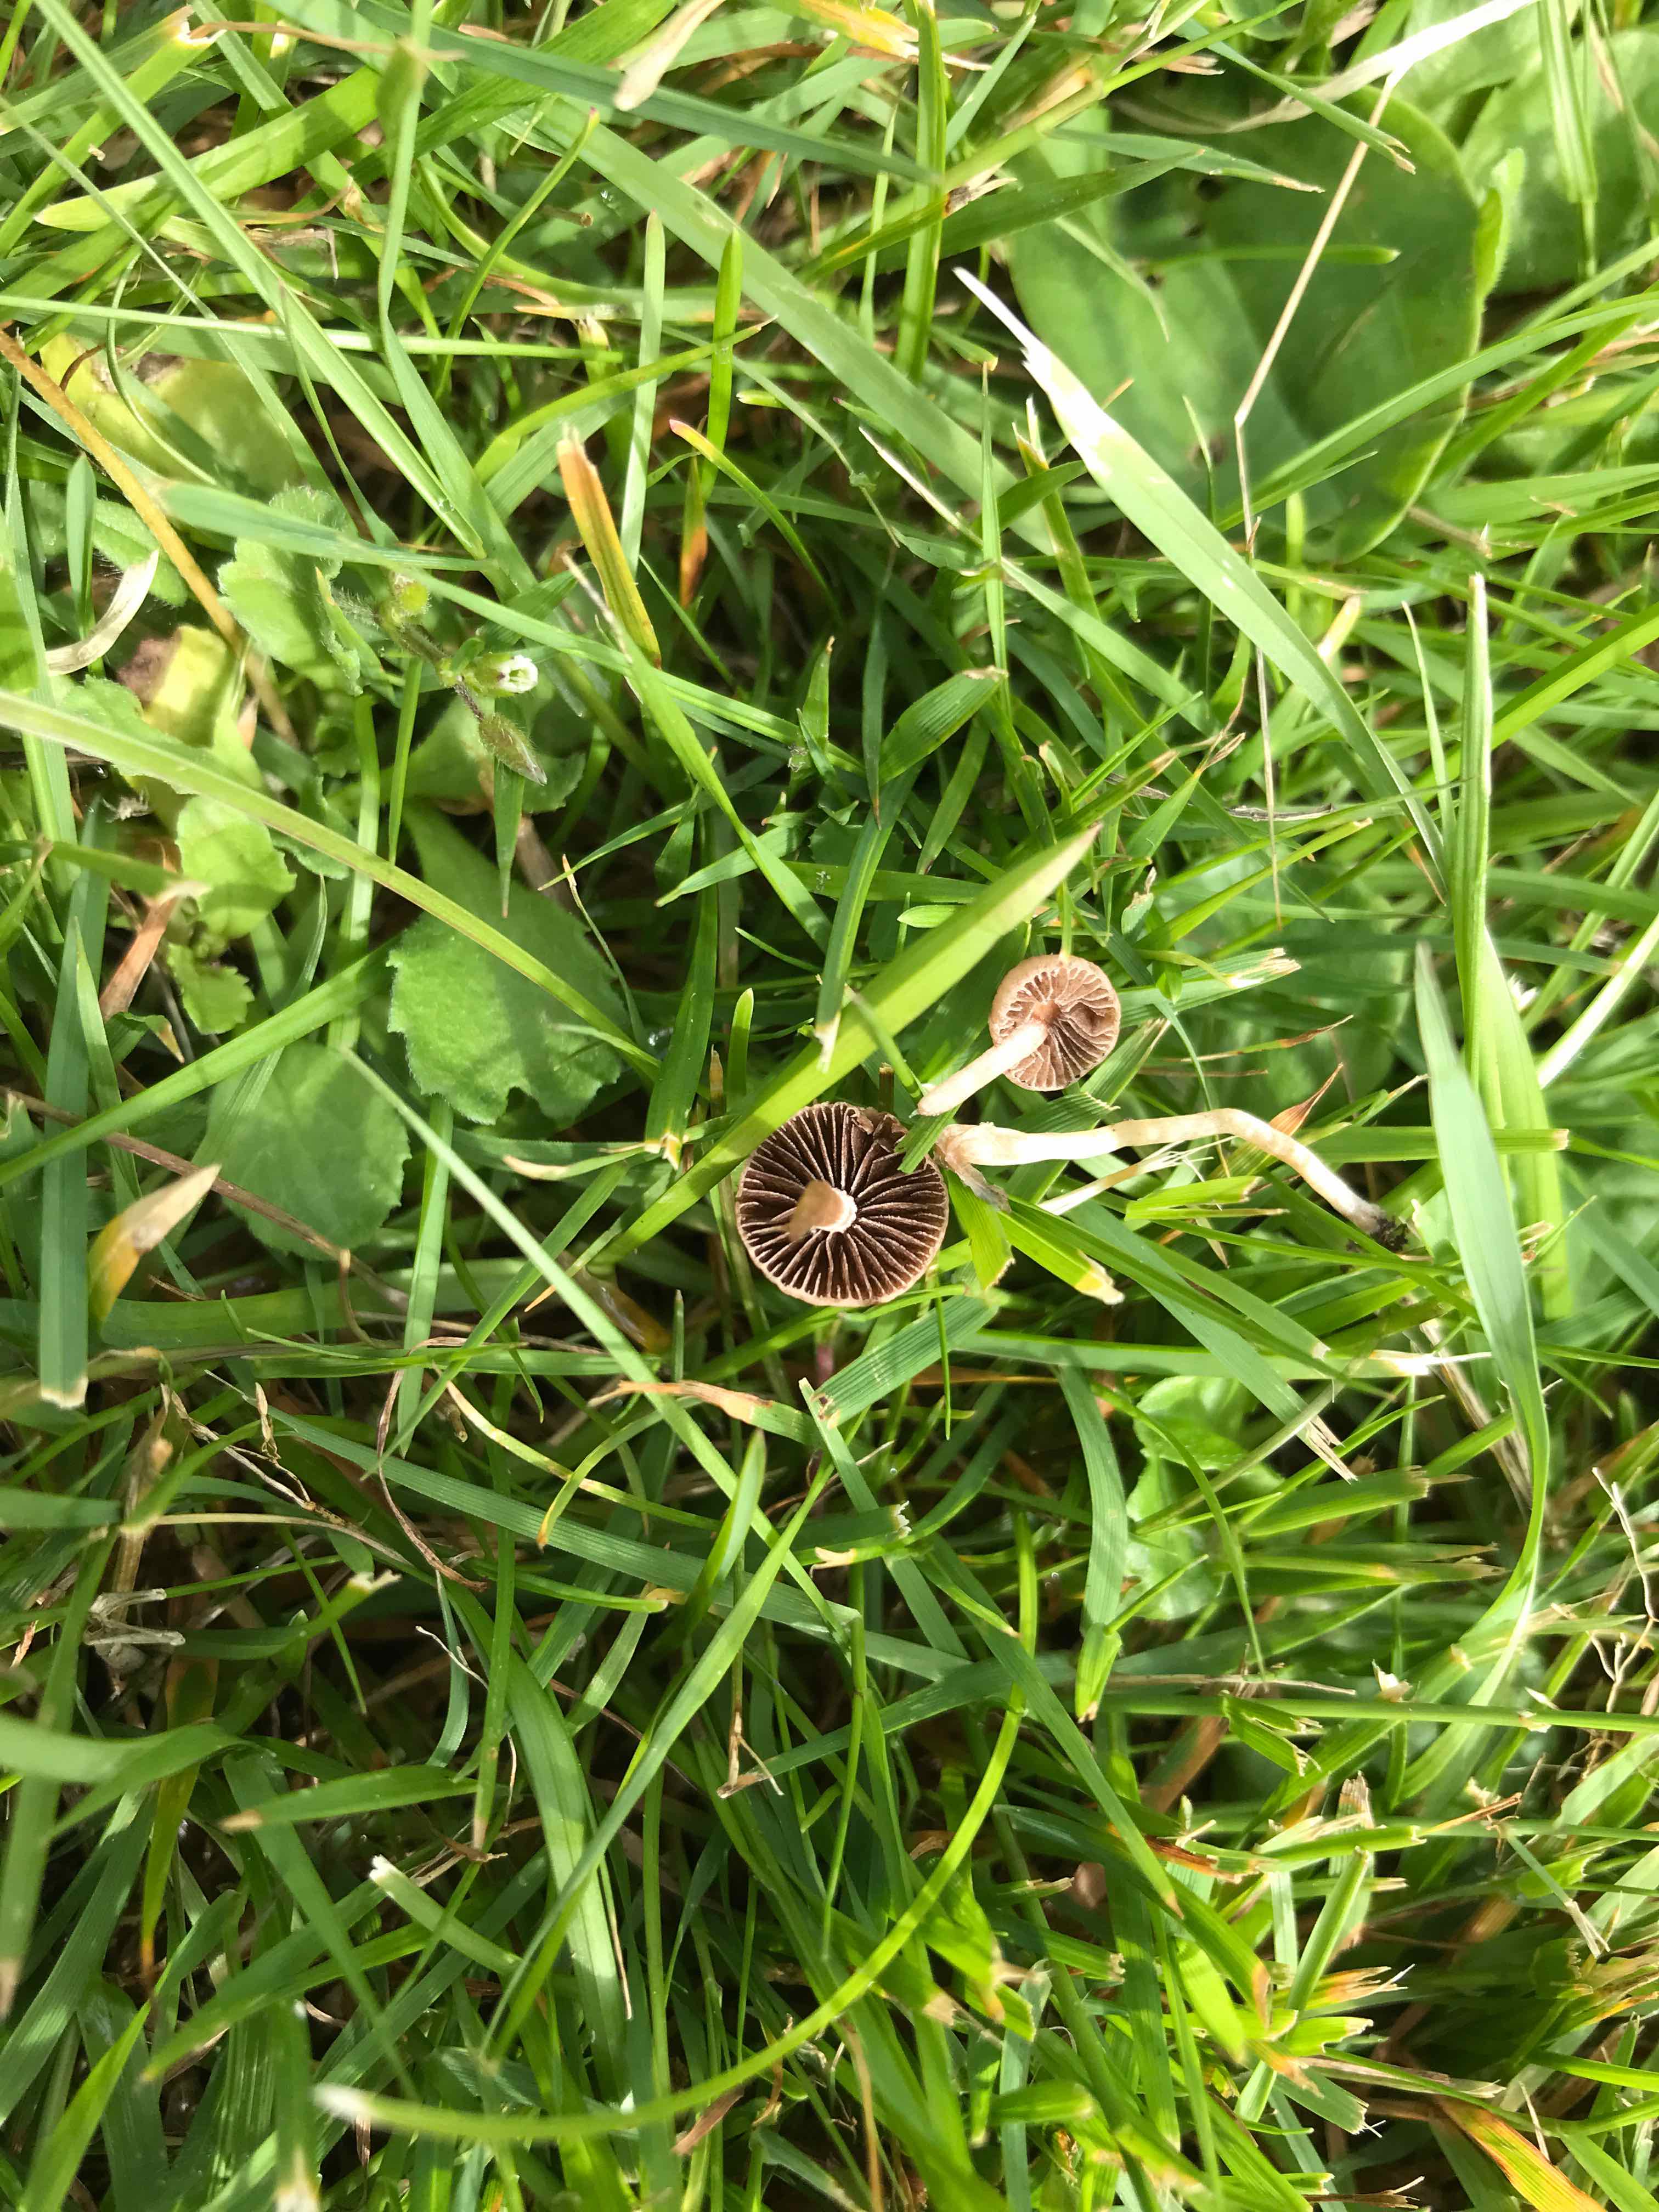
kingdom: Fungi
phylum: Basidiomycota
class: Agaricomycetes
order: Agaricales
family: Bolbitiaceae
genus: Panaeolina
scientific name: Panaeolina foenisecii
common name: høslætsvamp
